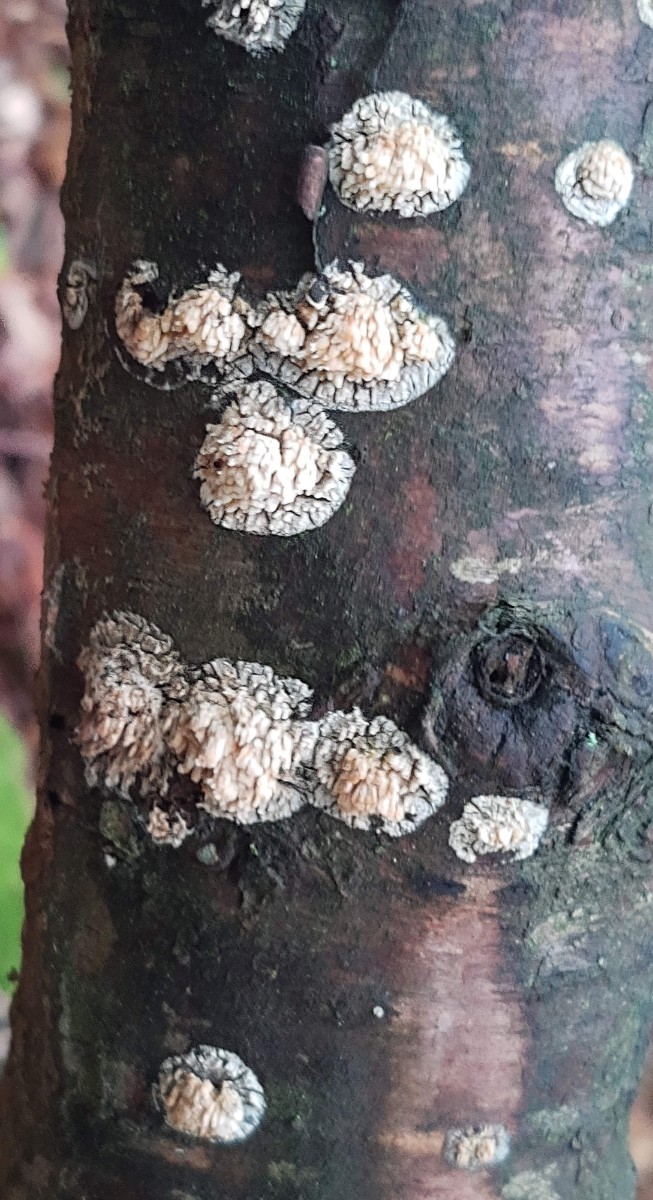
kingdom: Fungi
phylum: Basidiomycota
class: Agaricomycetes
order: Hymenochaetales
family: Schizoporaceae
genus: Xylodon
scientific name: Xylodon radula
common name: grovtandet kalkskind
